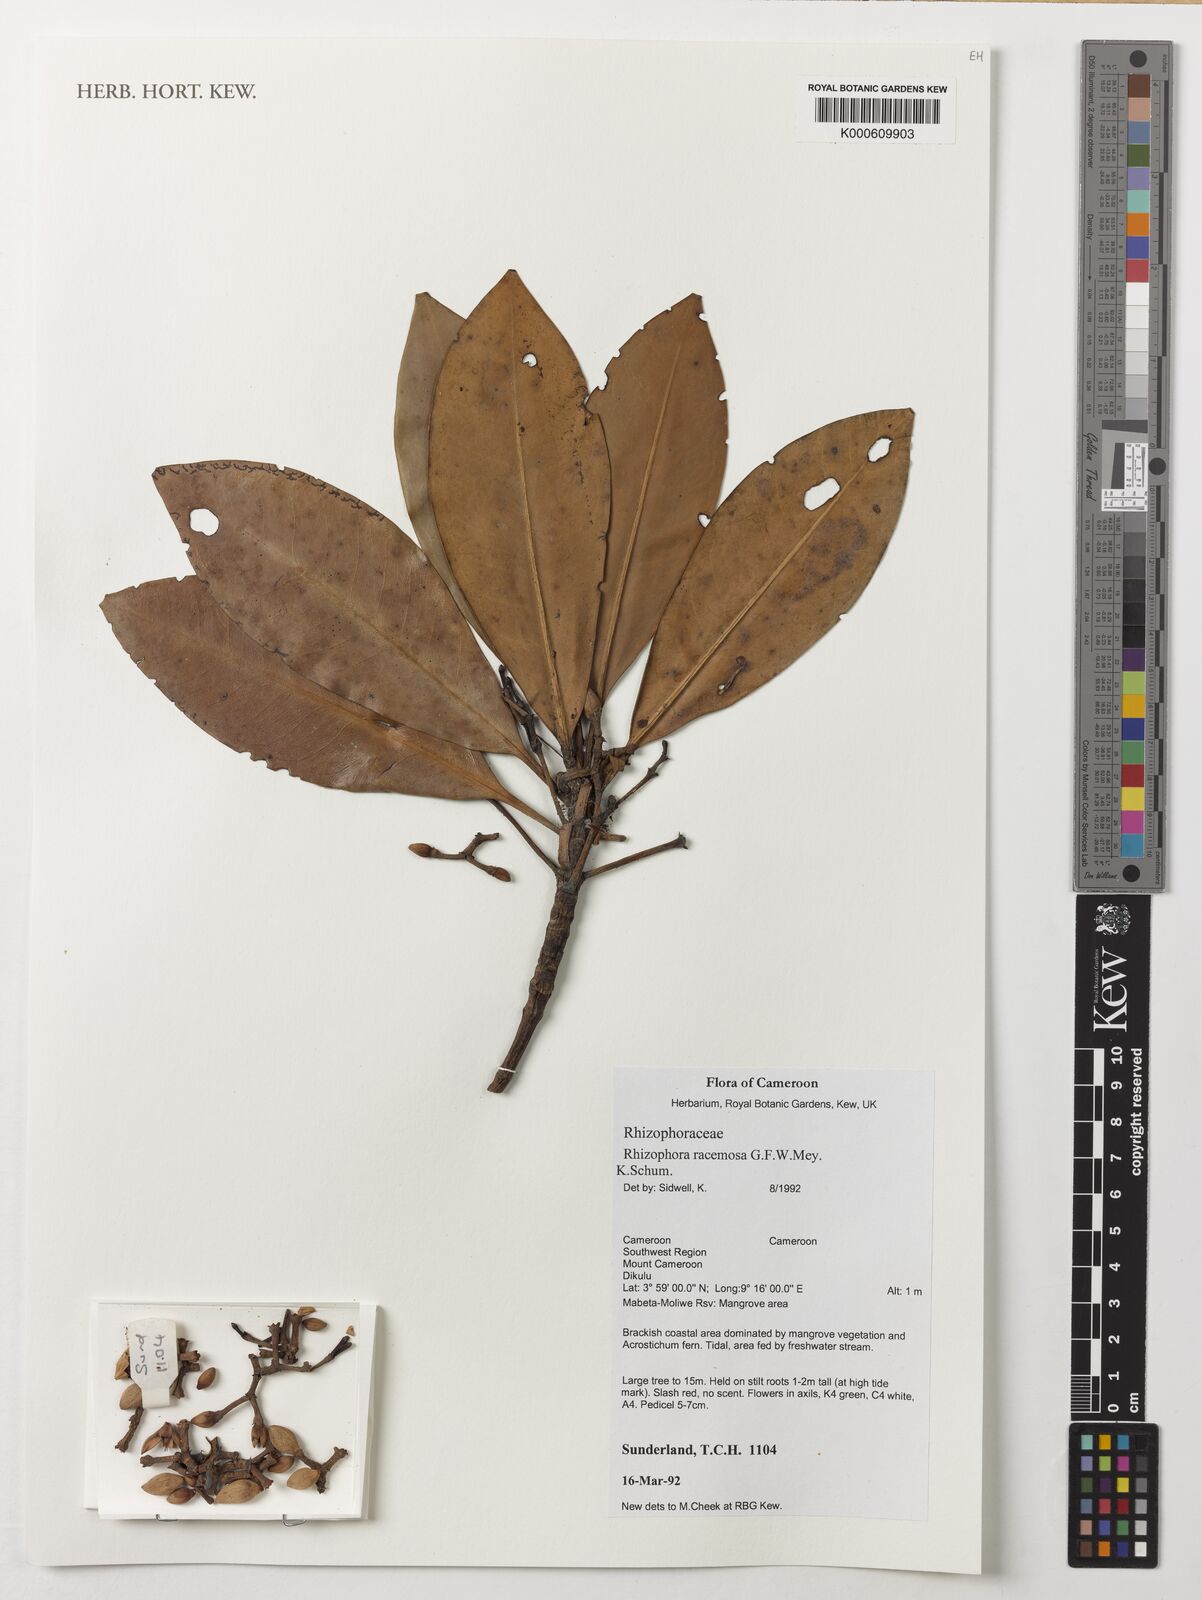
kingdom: Plantae
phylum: Tracheophyta
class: Magnoliopsida
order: Malpighiales
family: Rhizophoraceae
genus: Rhizophora
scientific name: Rhizophora racemosa
